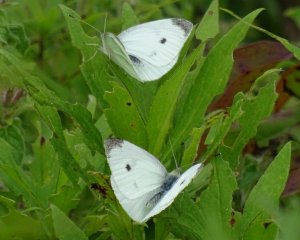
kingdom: Animalia
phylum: Arthropoda
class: Insecta
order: Lepidoptera
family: Pieridae
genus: Pieris
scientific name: Pieris rapae
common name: Cabbage White
